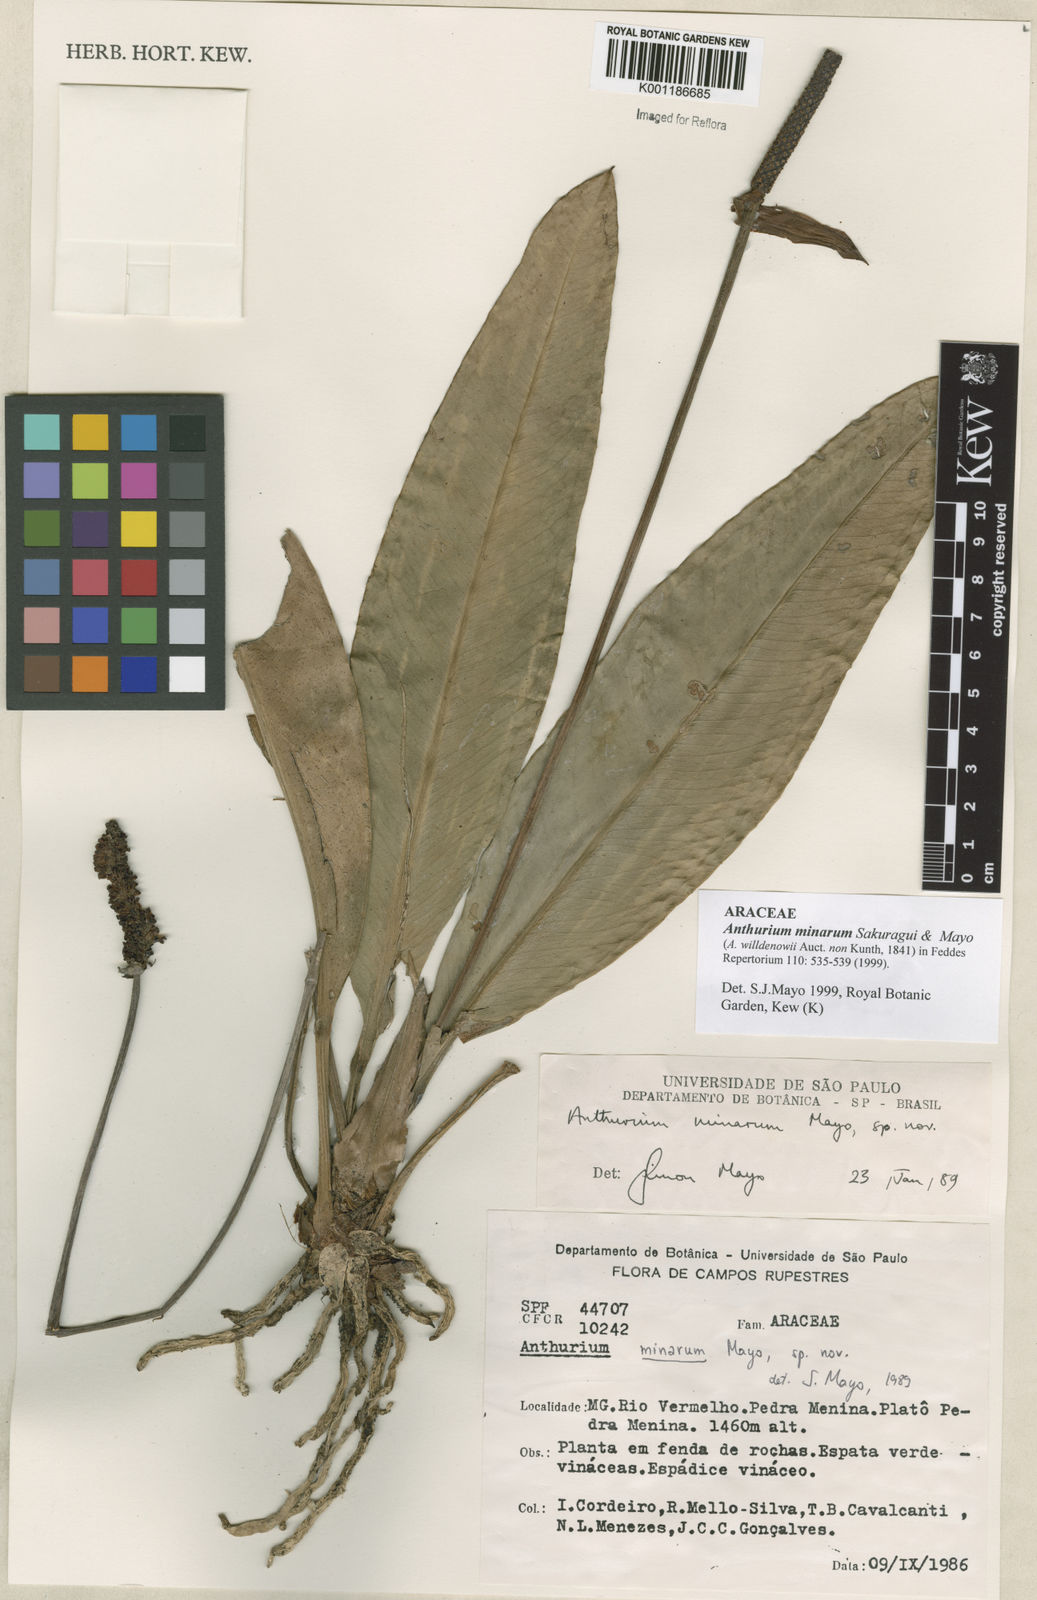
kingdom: Plantae
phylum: Tracheophyta
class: Liliopsida
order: Alismatales
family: Araceae
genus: Anthurium
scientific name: Anthurium minarum
